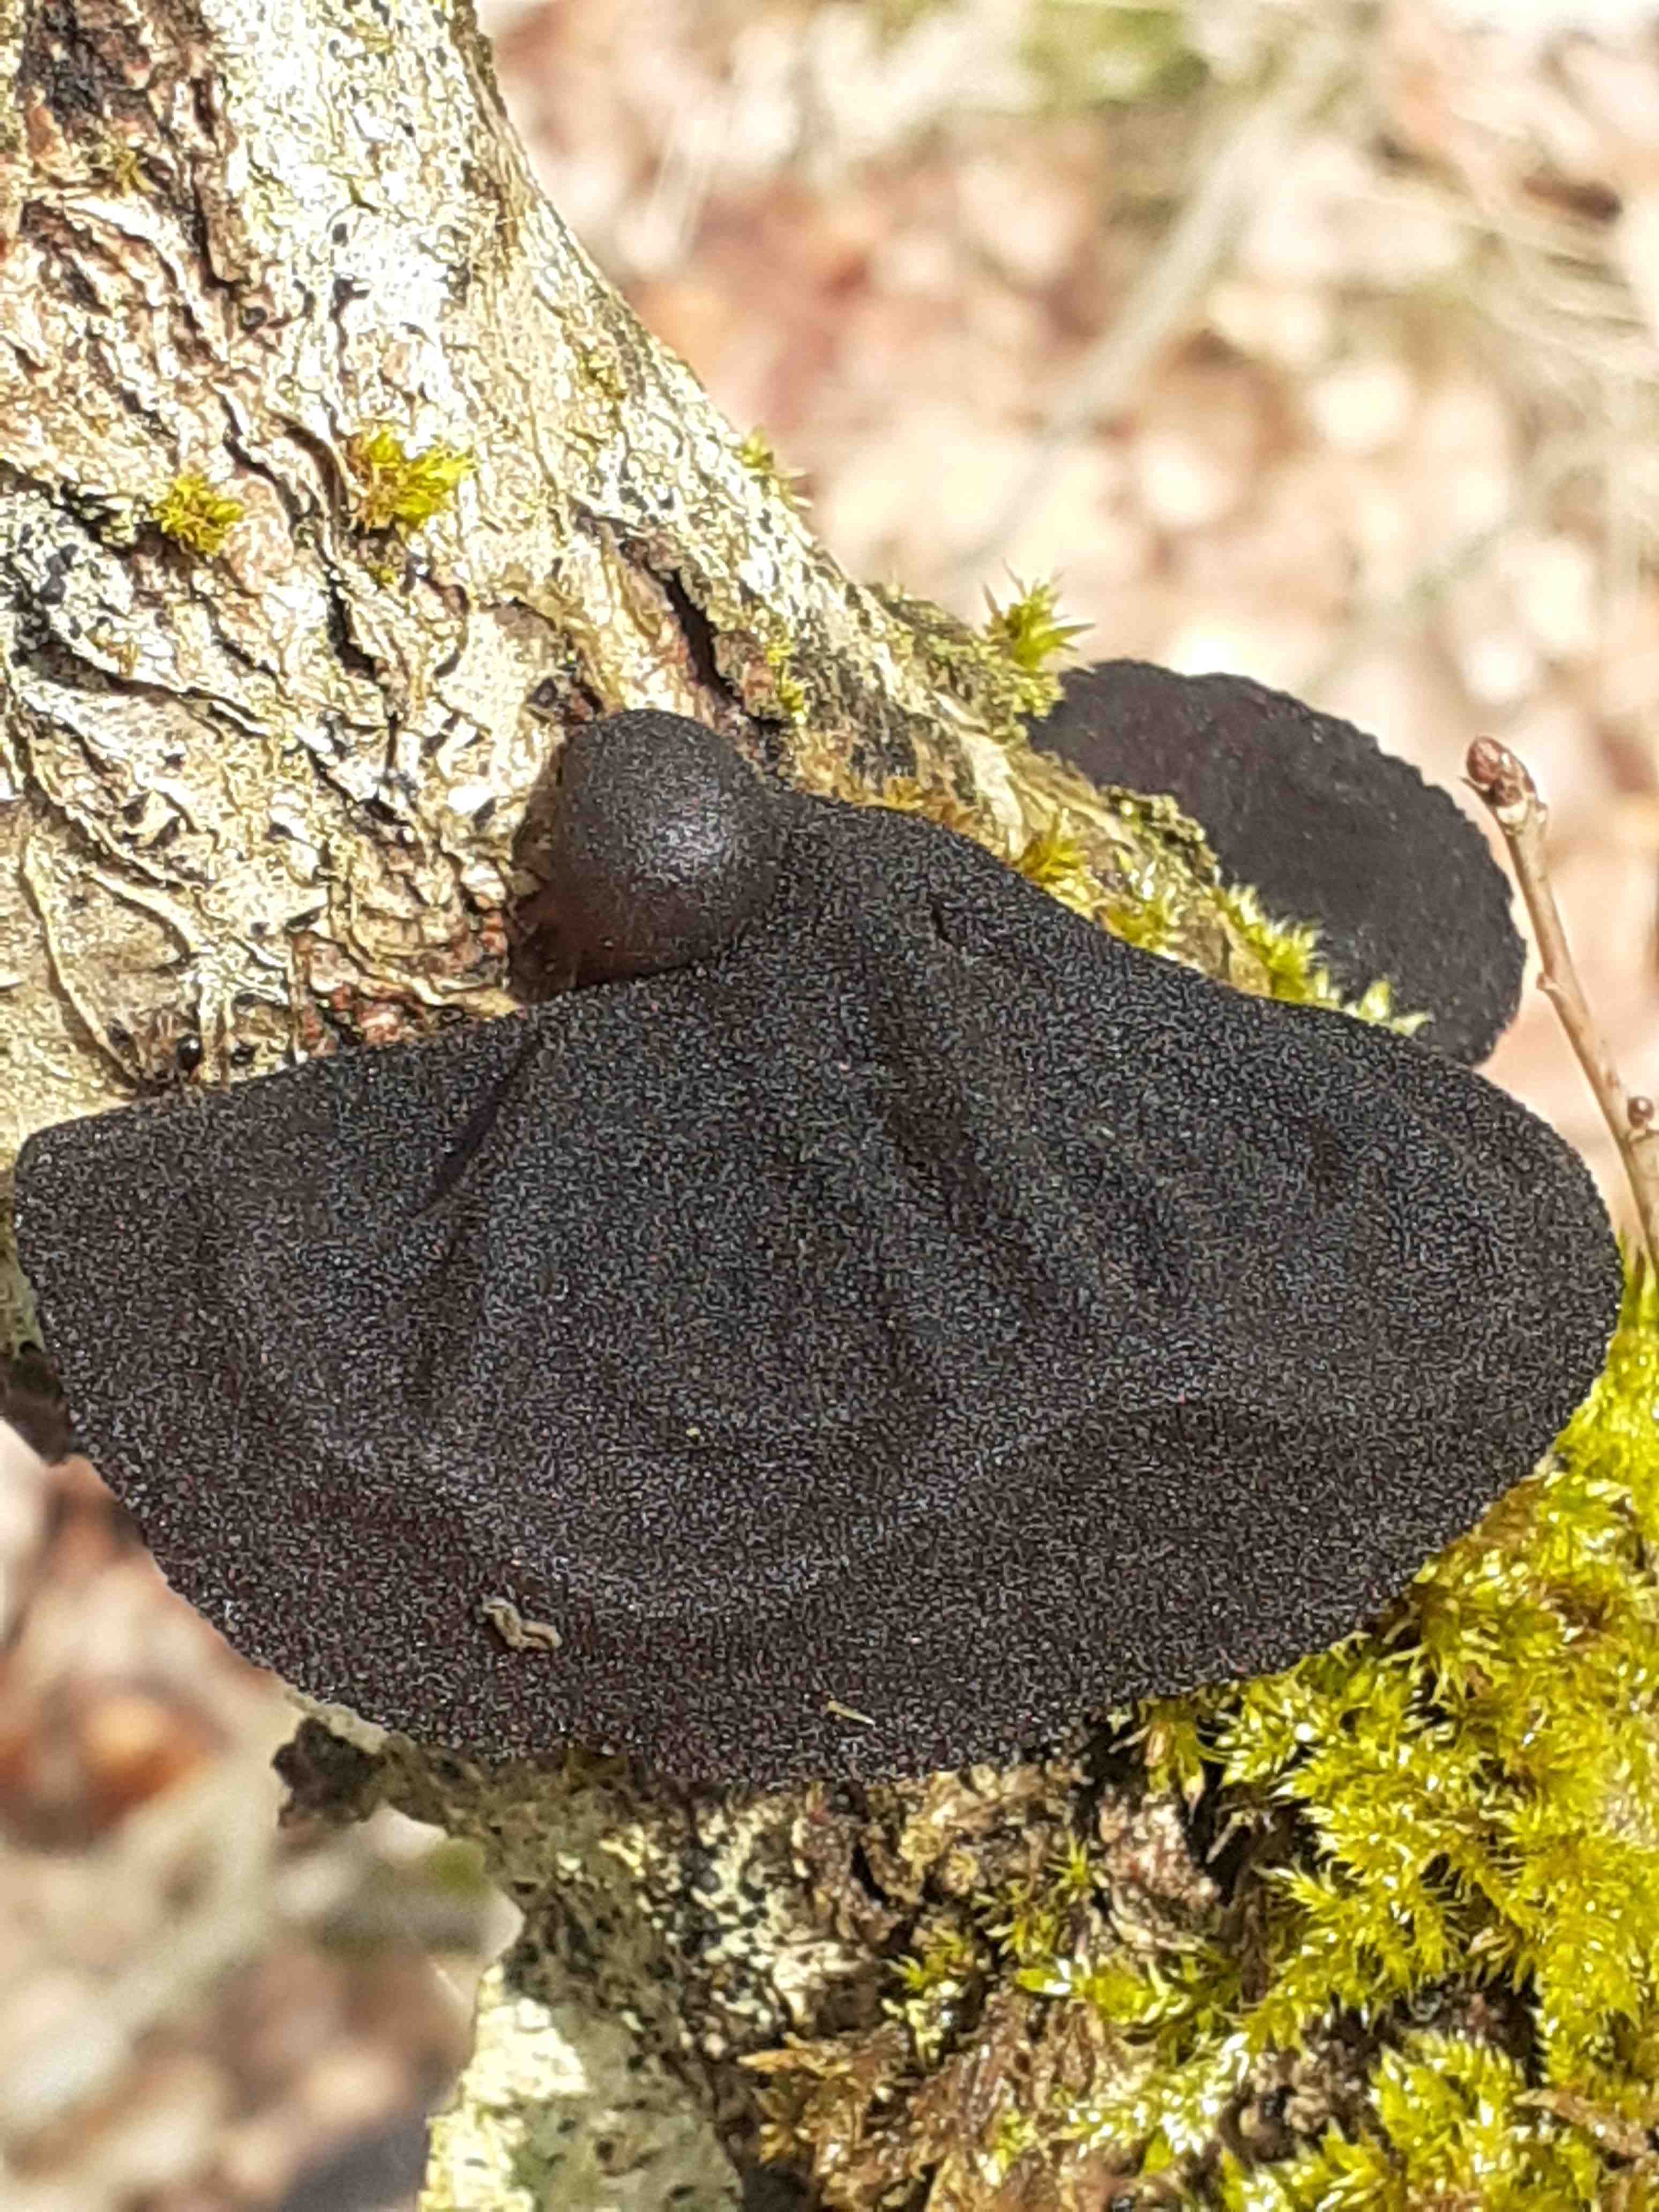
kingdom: Fungi
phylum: Basidiomycota
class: Agaricomycetes
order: Auriculariales
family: Auriculariaceae
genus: Exidia
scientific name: Exidia glandulosa
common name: ege-bævretop
